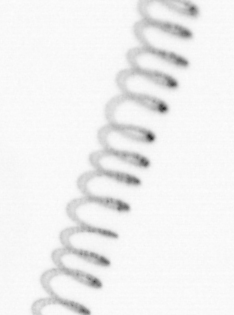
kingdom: Chromista
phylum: Ochrophyta
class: Bacillariophyceae
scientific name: Bacillariophyceae
